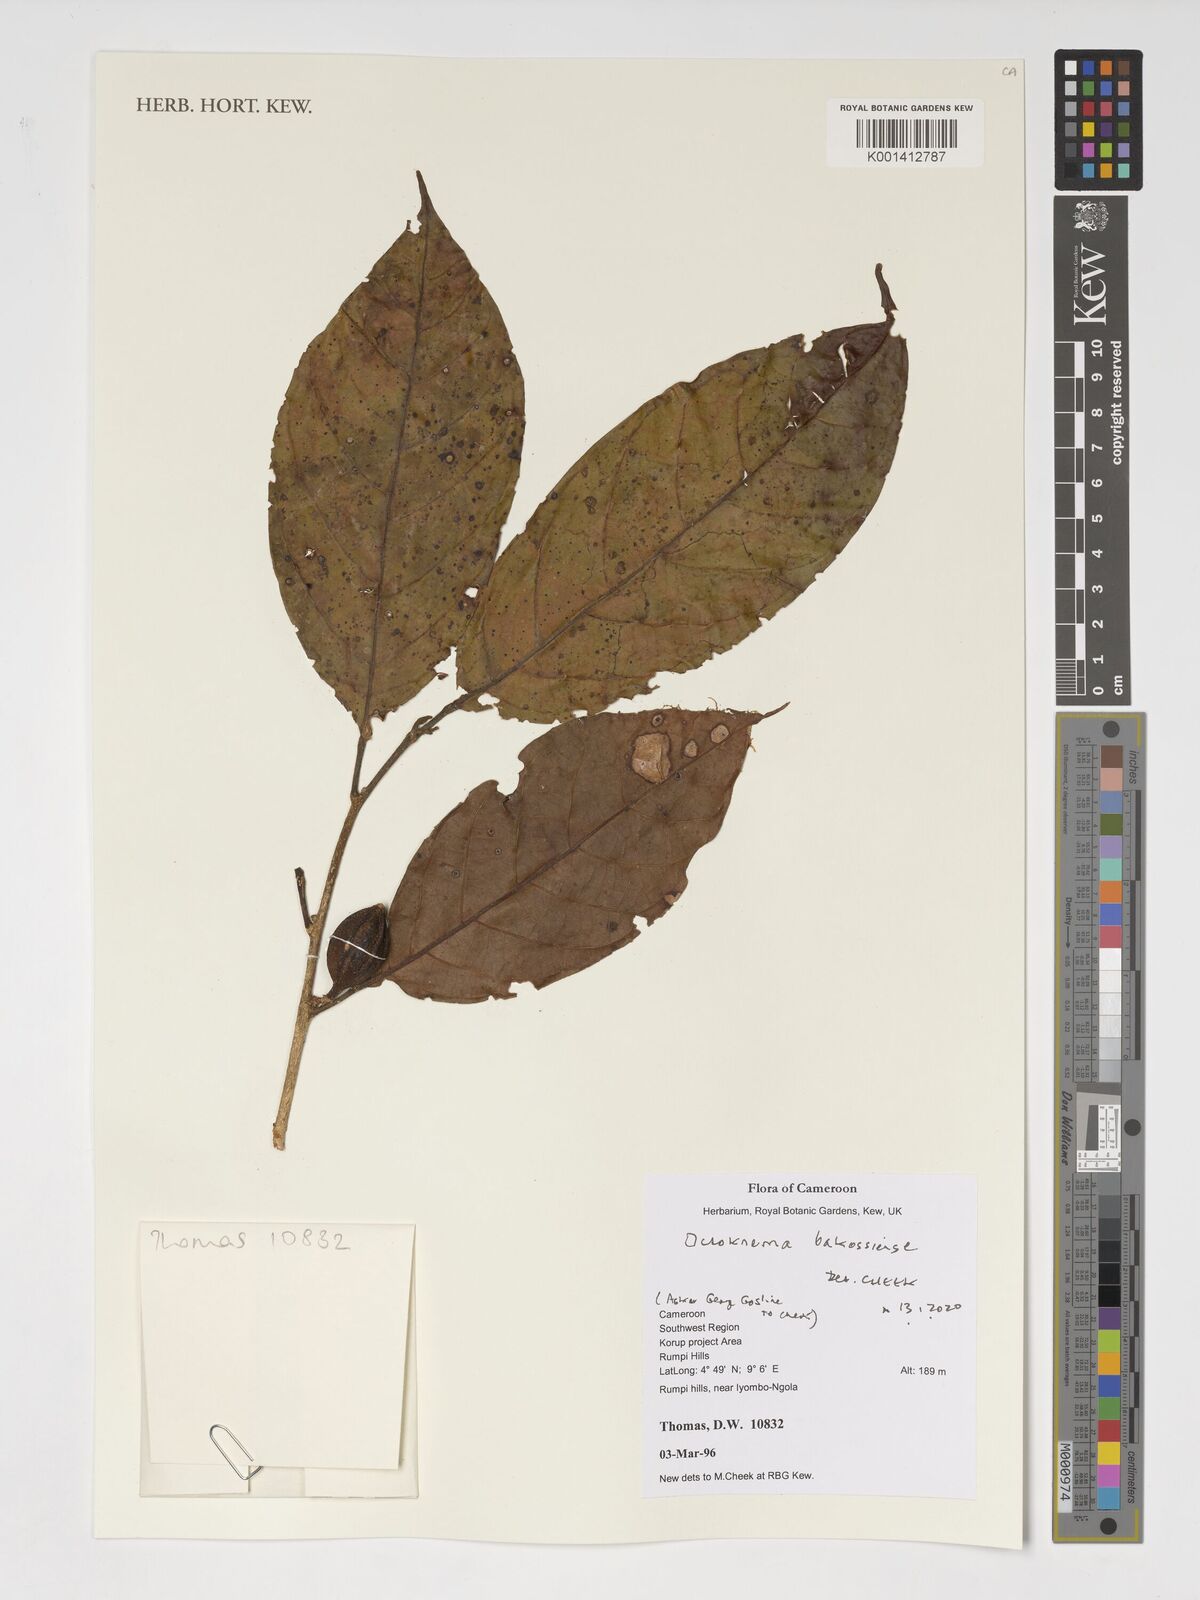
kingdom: Plantae
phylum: Tracheophyta
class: Magnoliopsida
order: Santalales
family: Octoknemaceae
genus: Octoknema
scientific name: Octoknema bakossiensis
